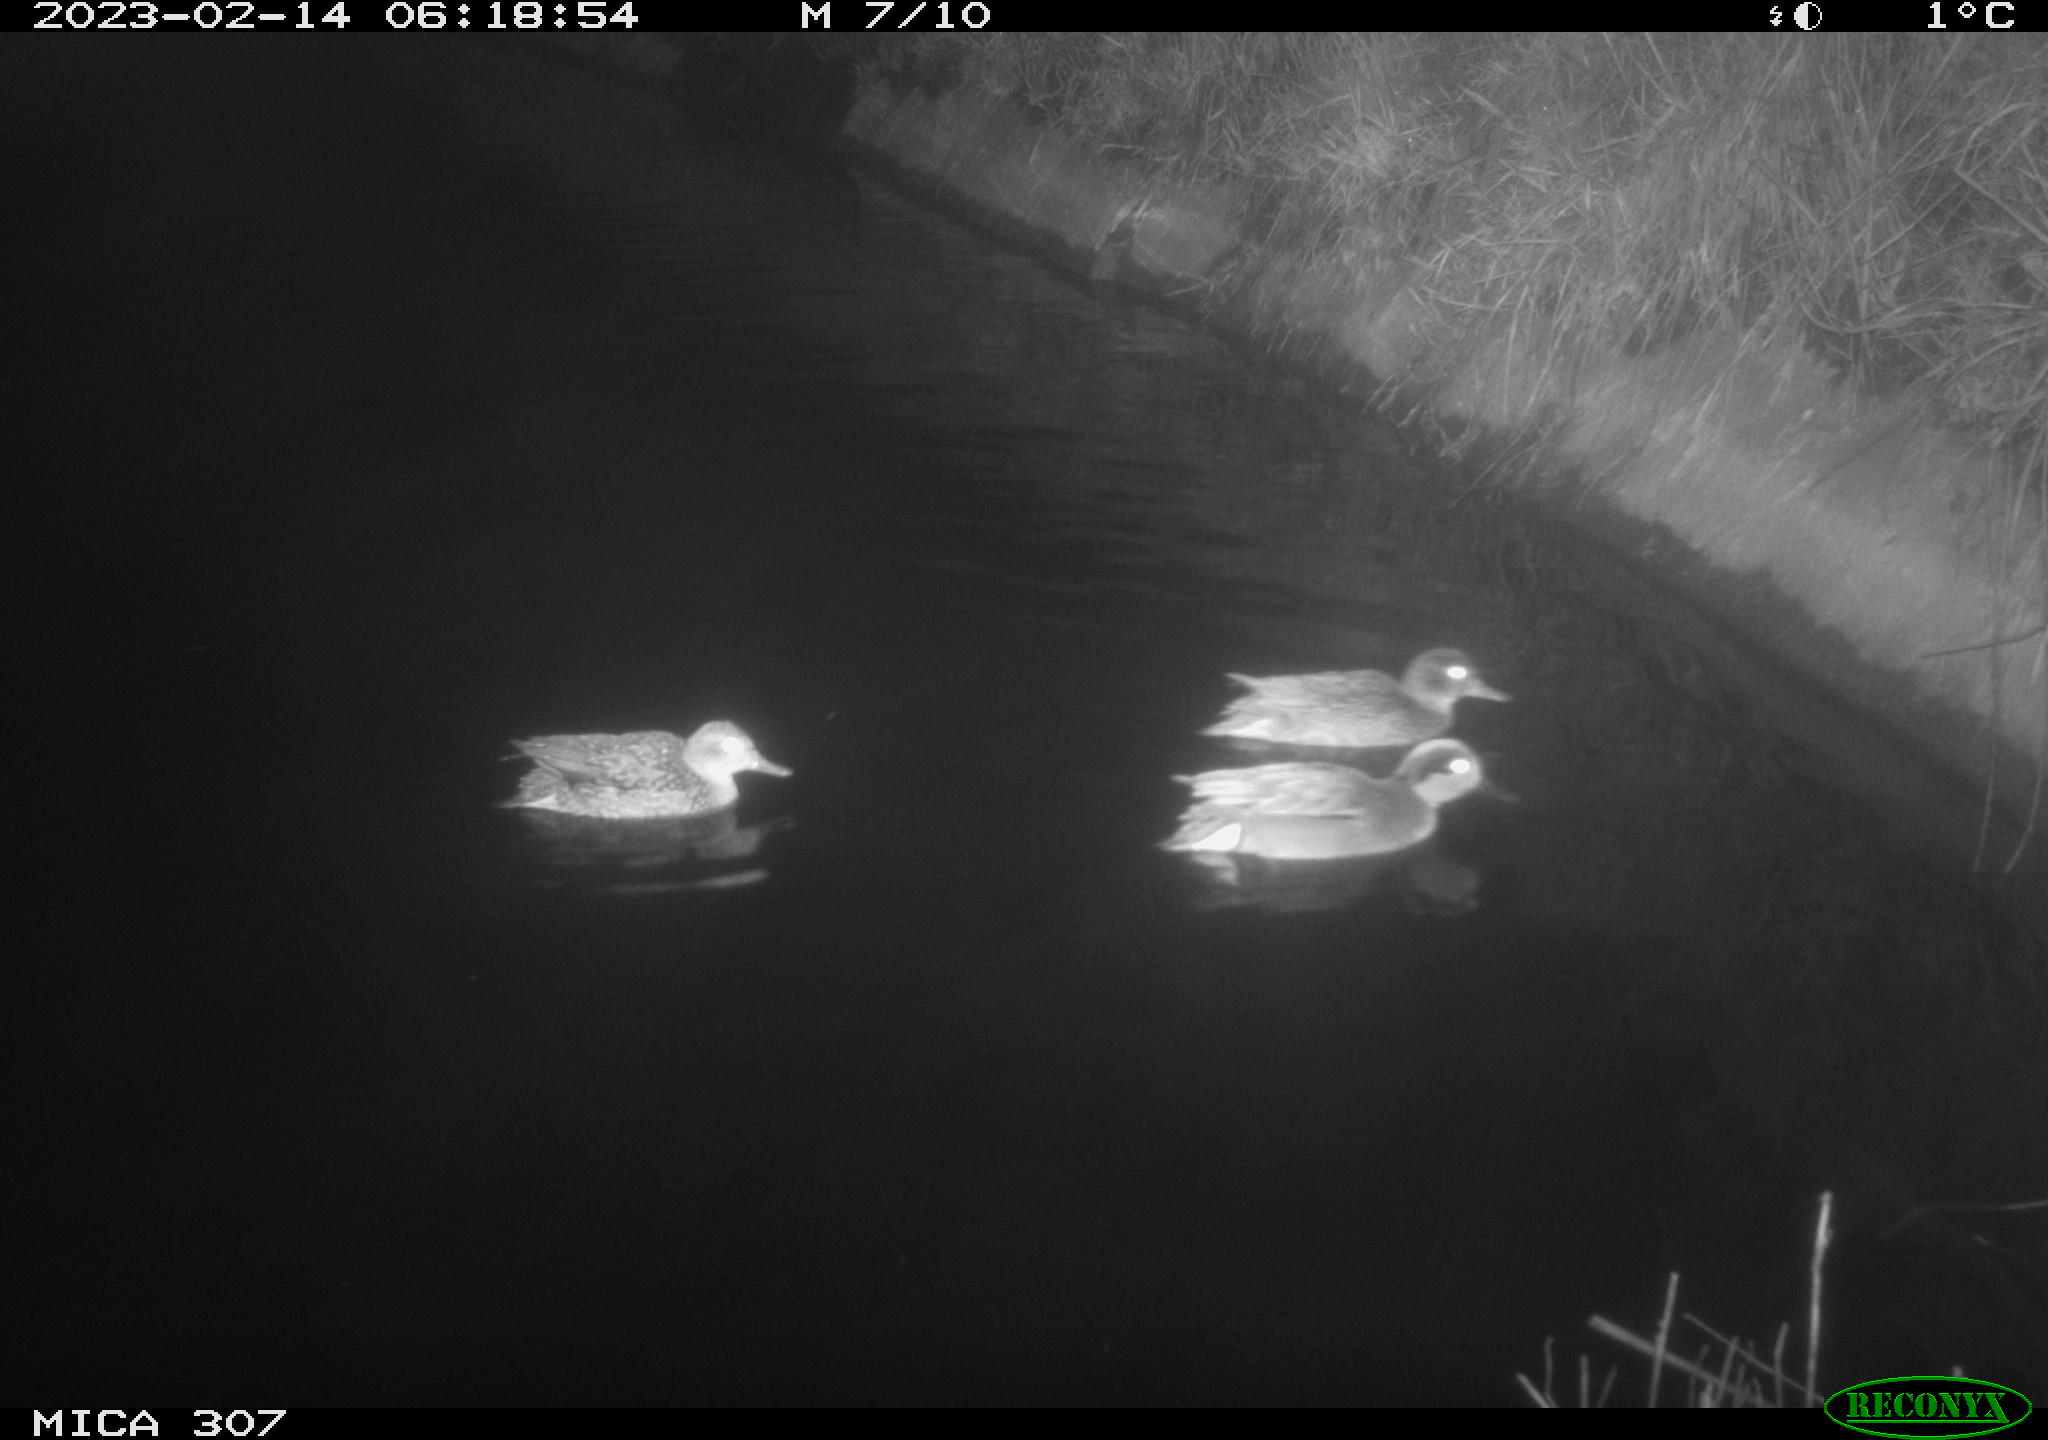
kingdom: Animalia
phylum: Chordata
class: Aves
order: Anseriformes
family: Anatidae
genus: Anas
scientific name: Anas
